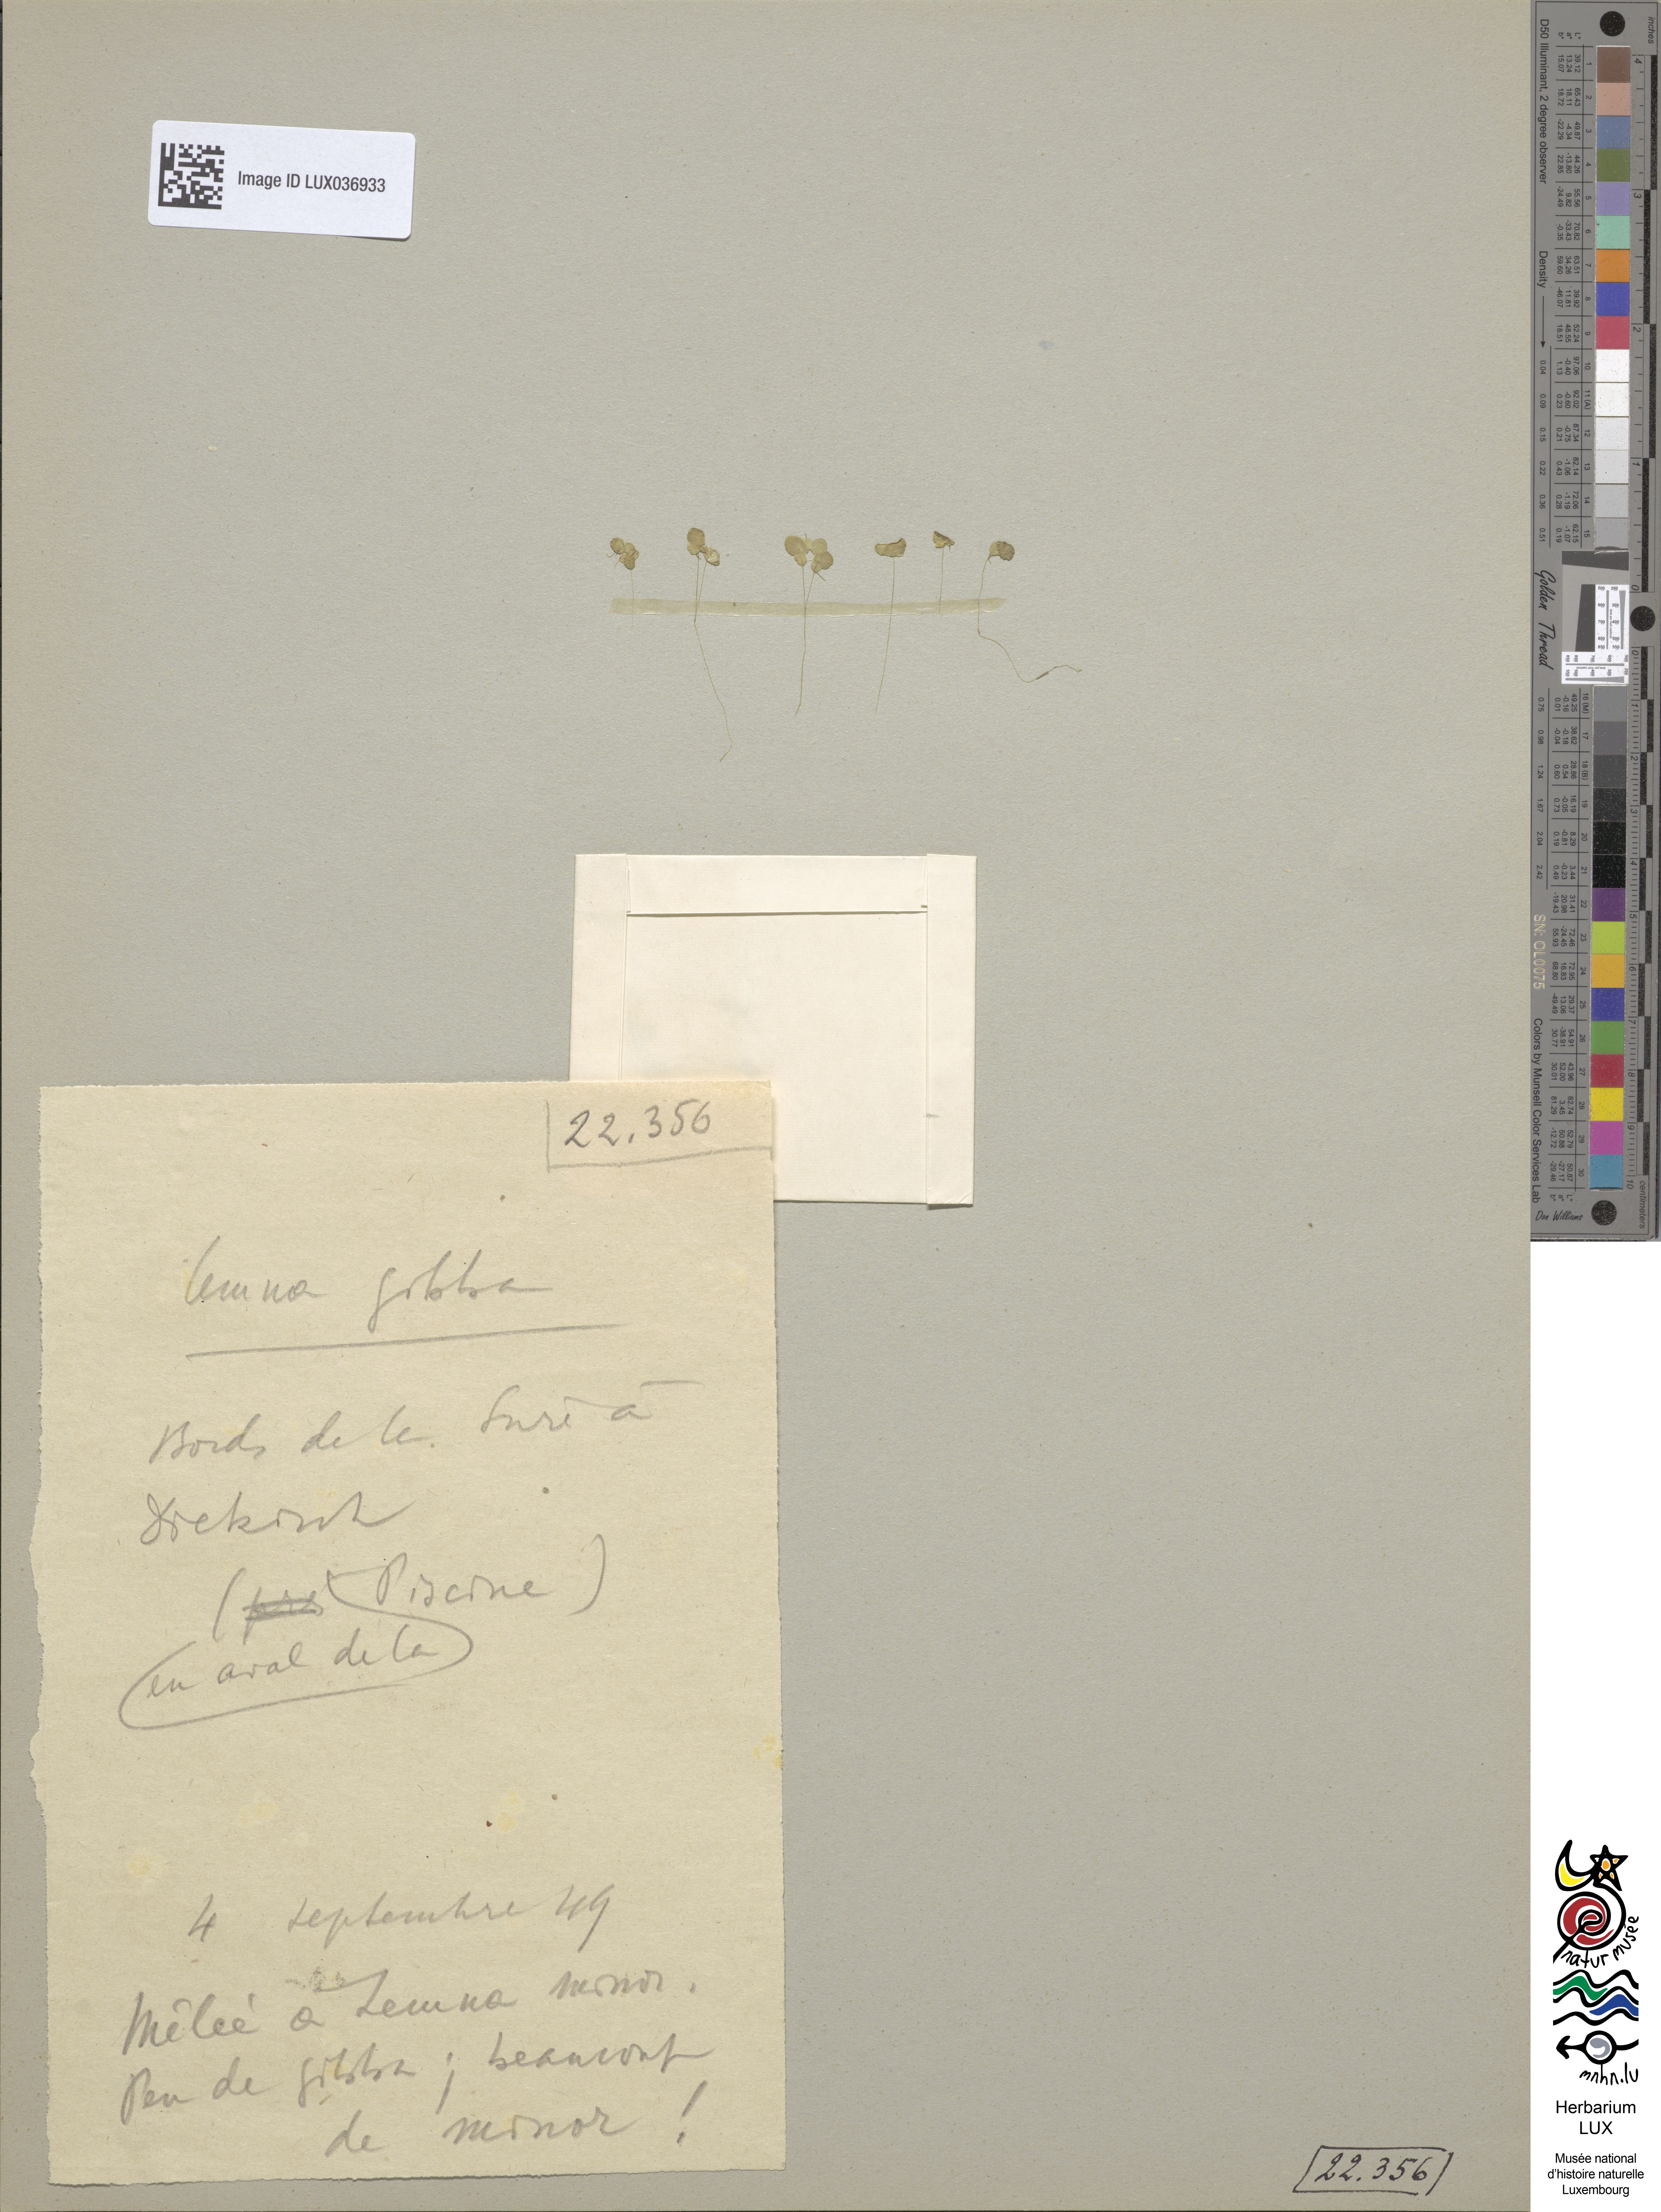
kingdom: Plantae
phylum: Tracheophyta
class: Liliopsida
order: Alismatales
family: Araceae
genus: Lemna
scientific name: Lemna gibba
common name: Fat duckweed
